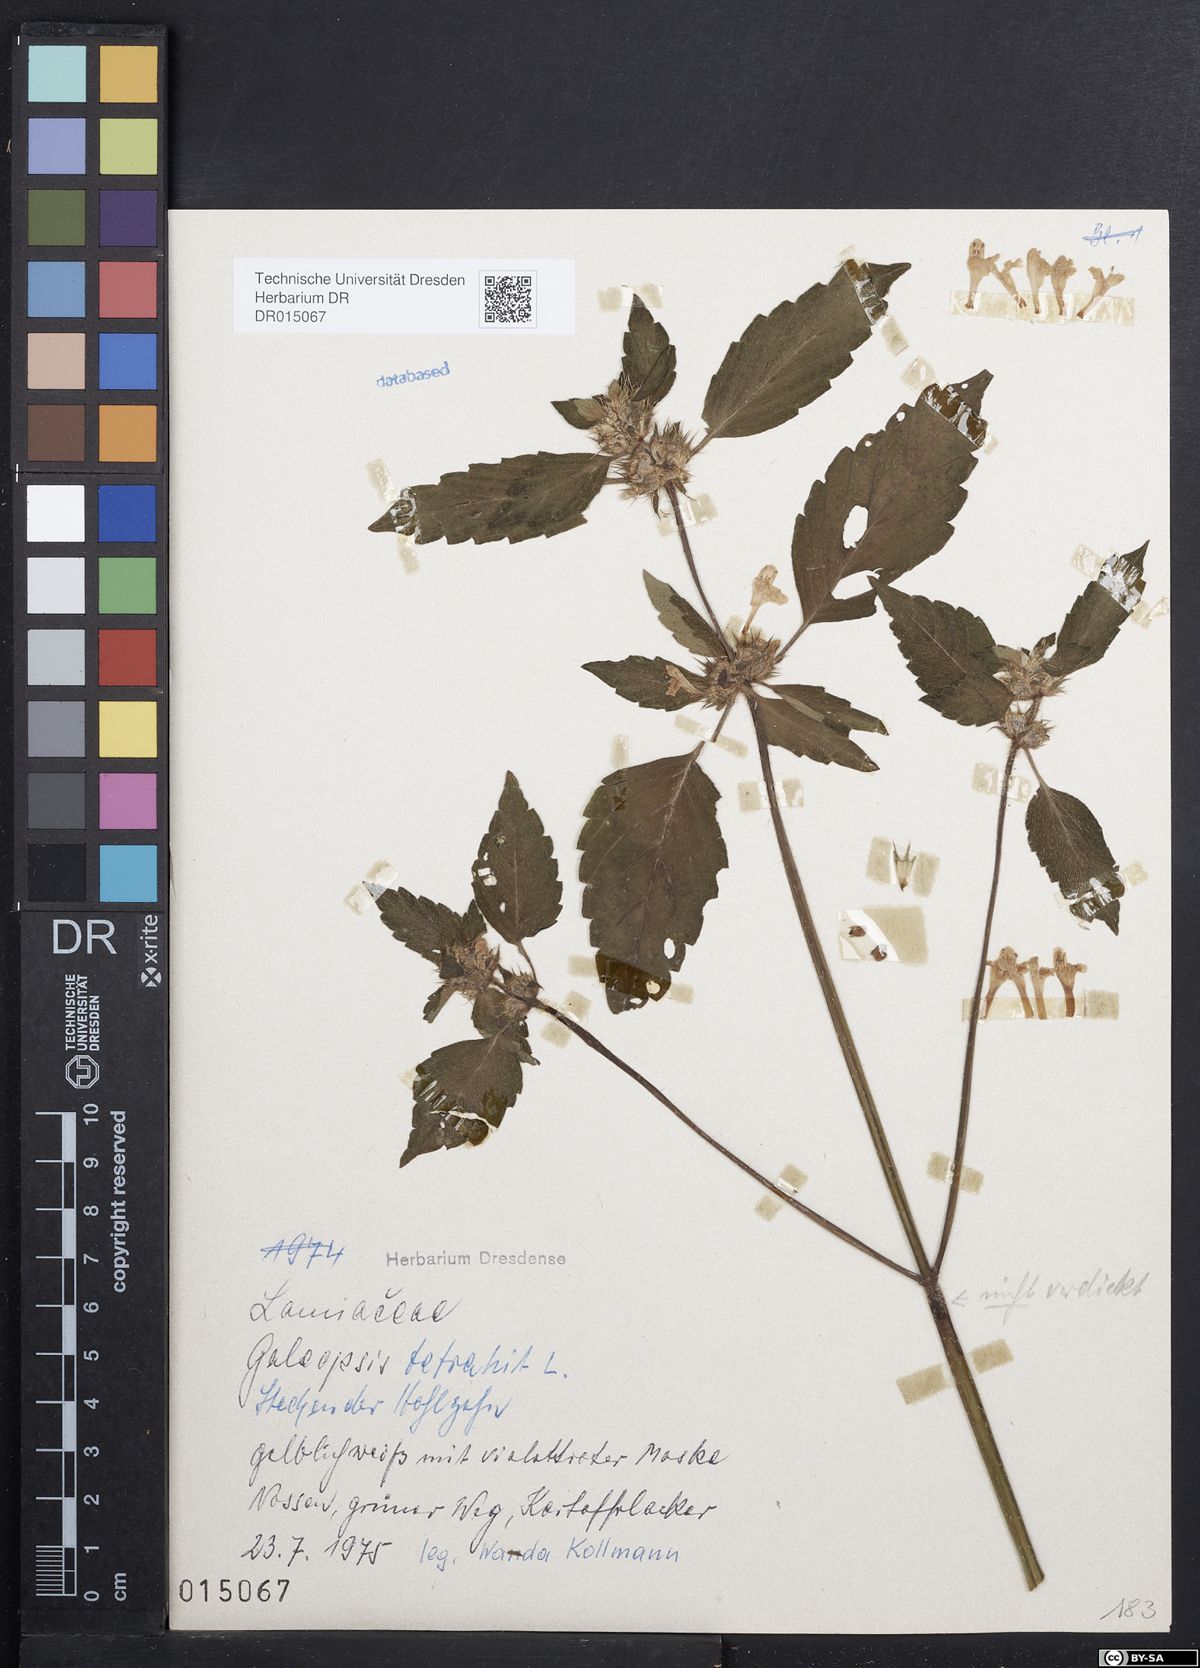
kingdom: Plantae
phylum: Tracheophyta
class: Magnoliopsida
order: Lamiales
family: Lamiaceae
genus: Galeopsis
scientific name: Galeopsis tetrahit
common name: Common hemp-nettle
